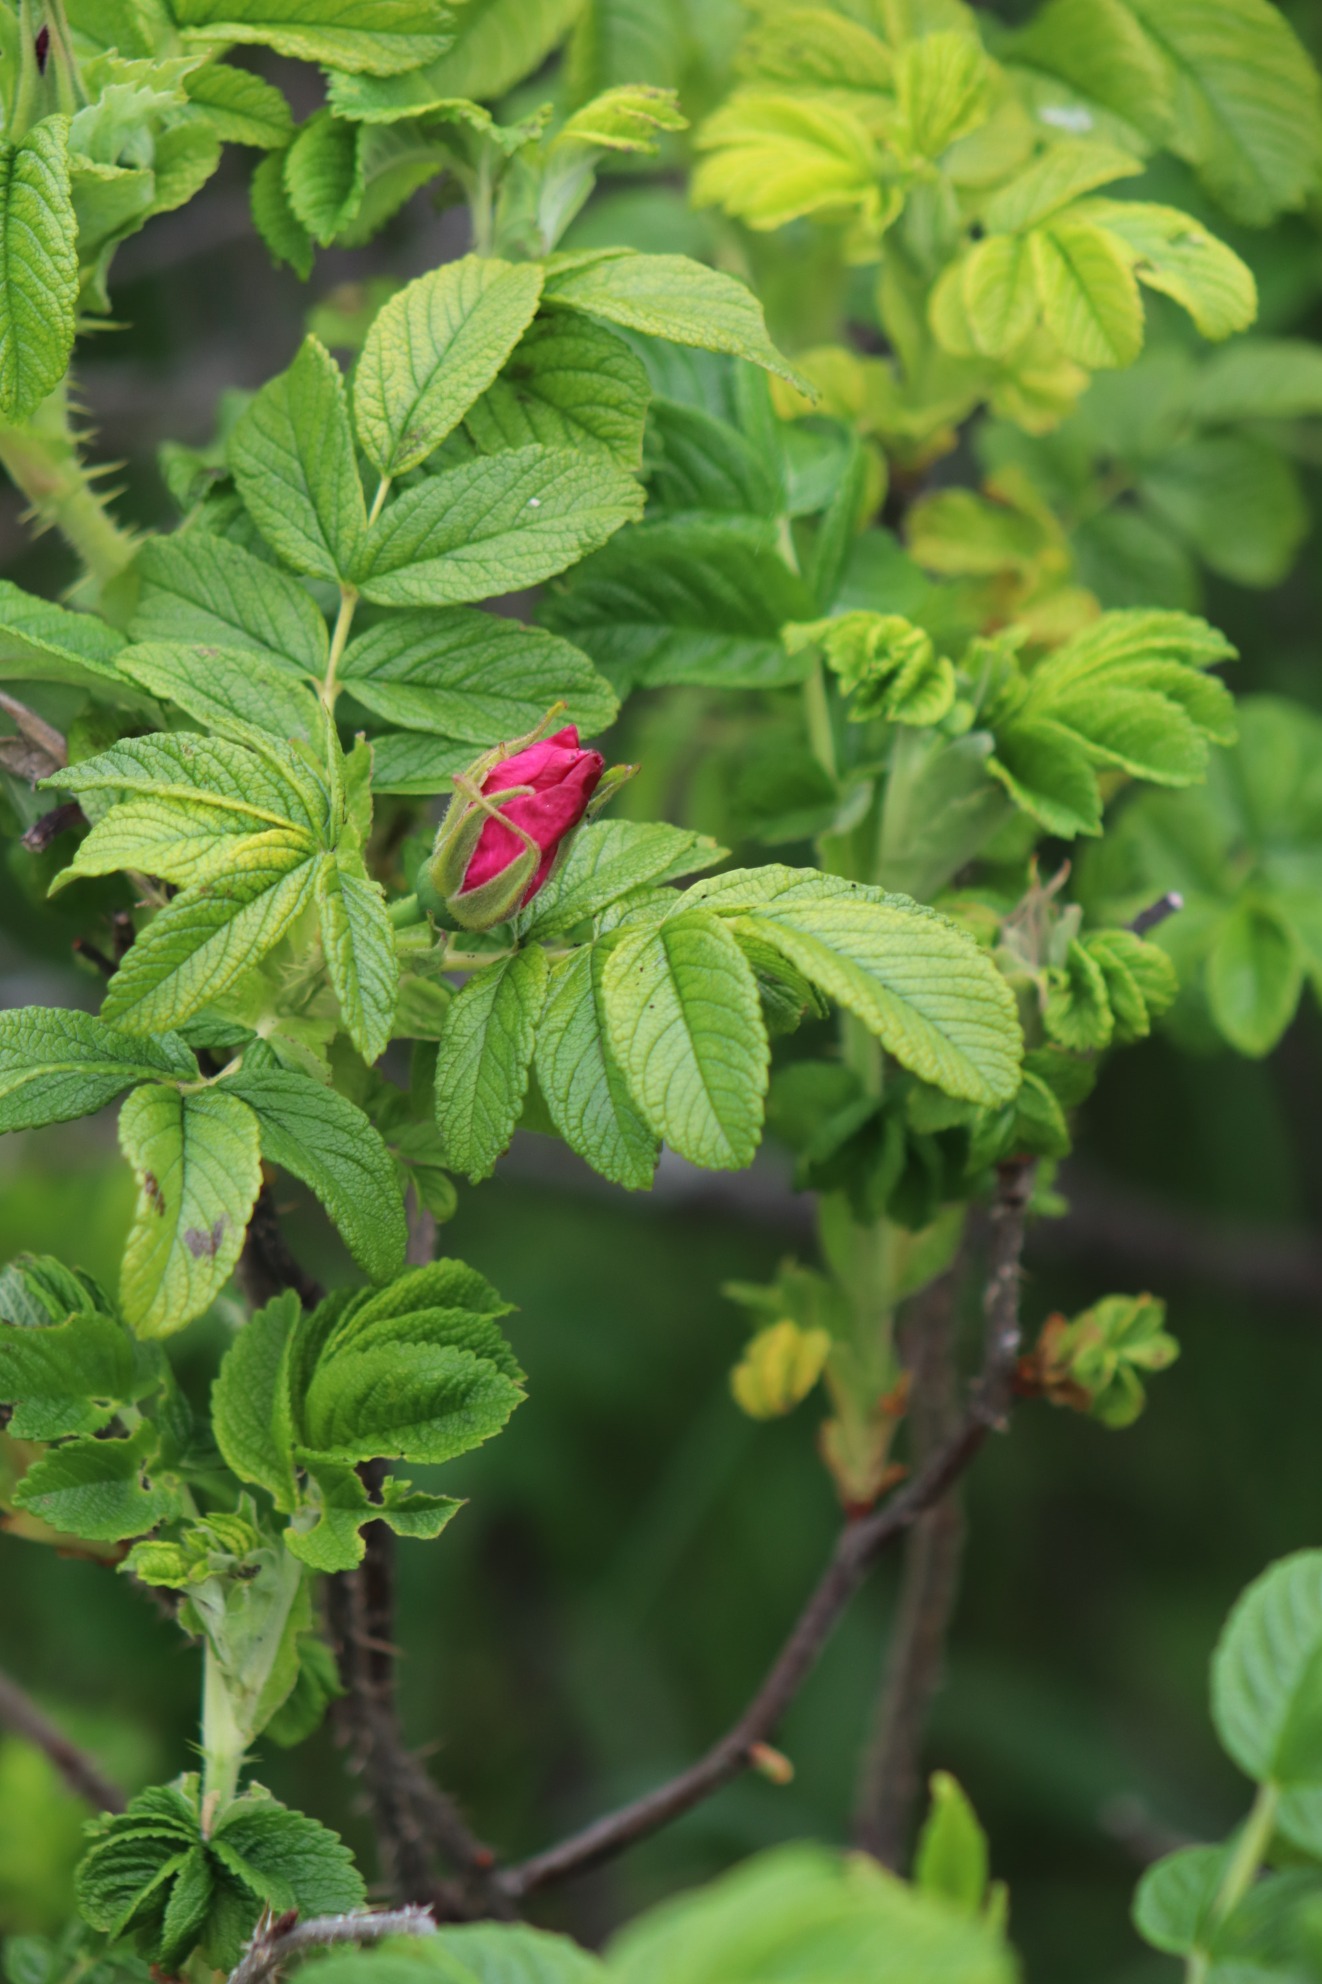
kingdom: Plantae
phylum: Tracheophyta
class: Magnoliopsida
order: Rosales
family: Rosaceae
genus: Rosa
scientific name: Rosa rugosa
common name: Rynket rose
